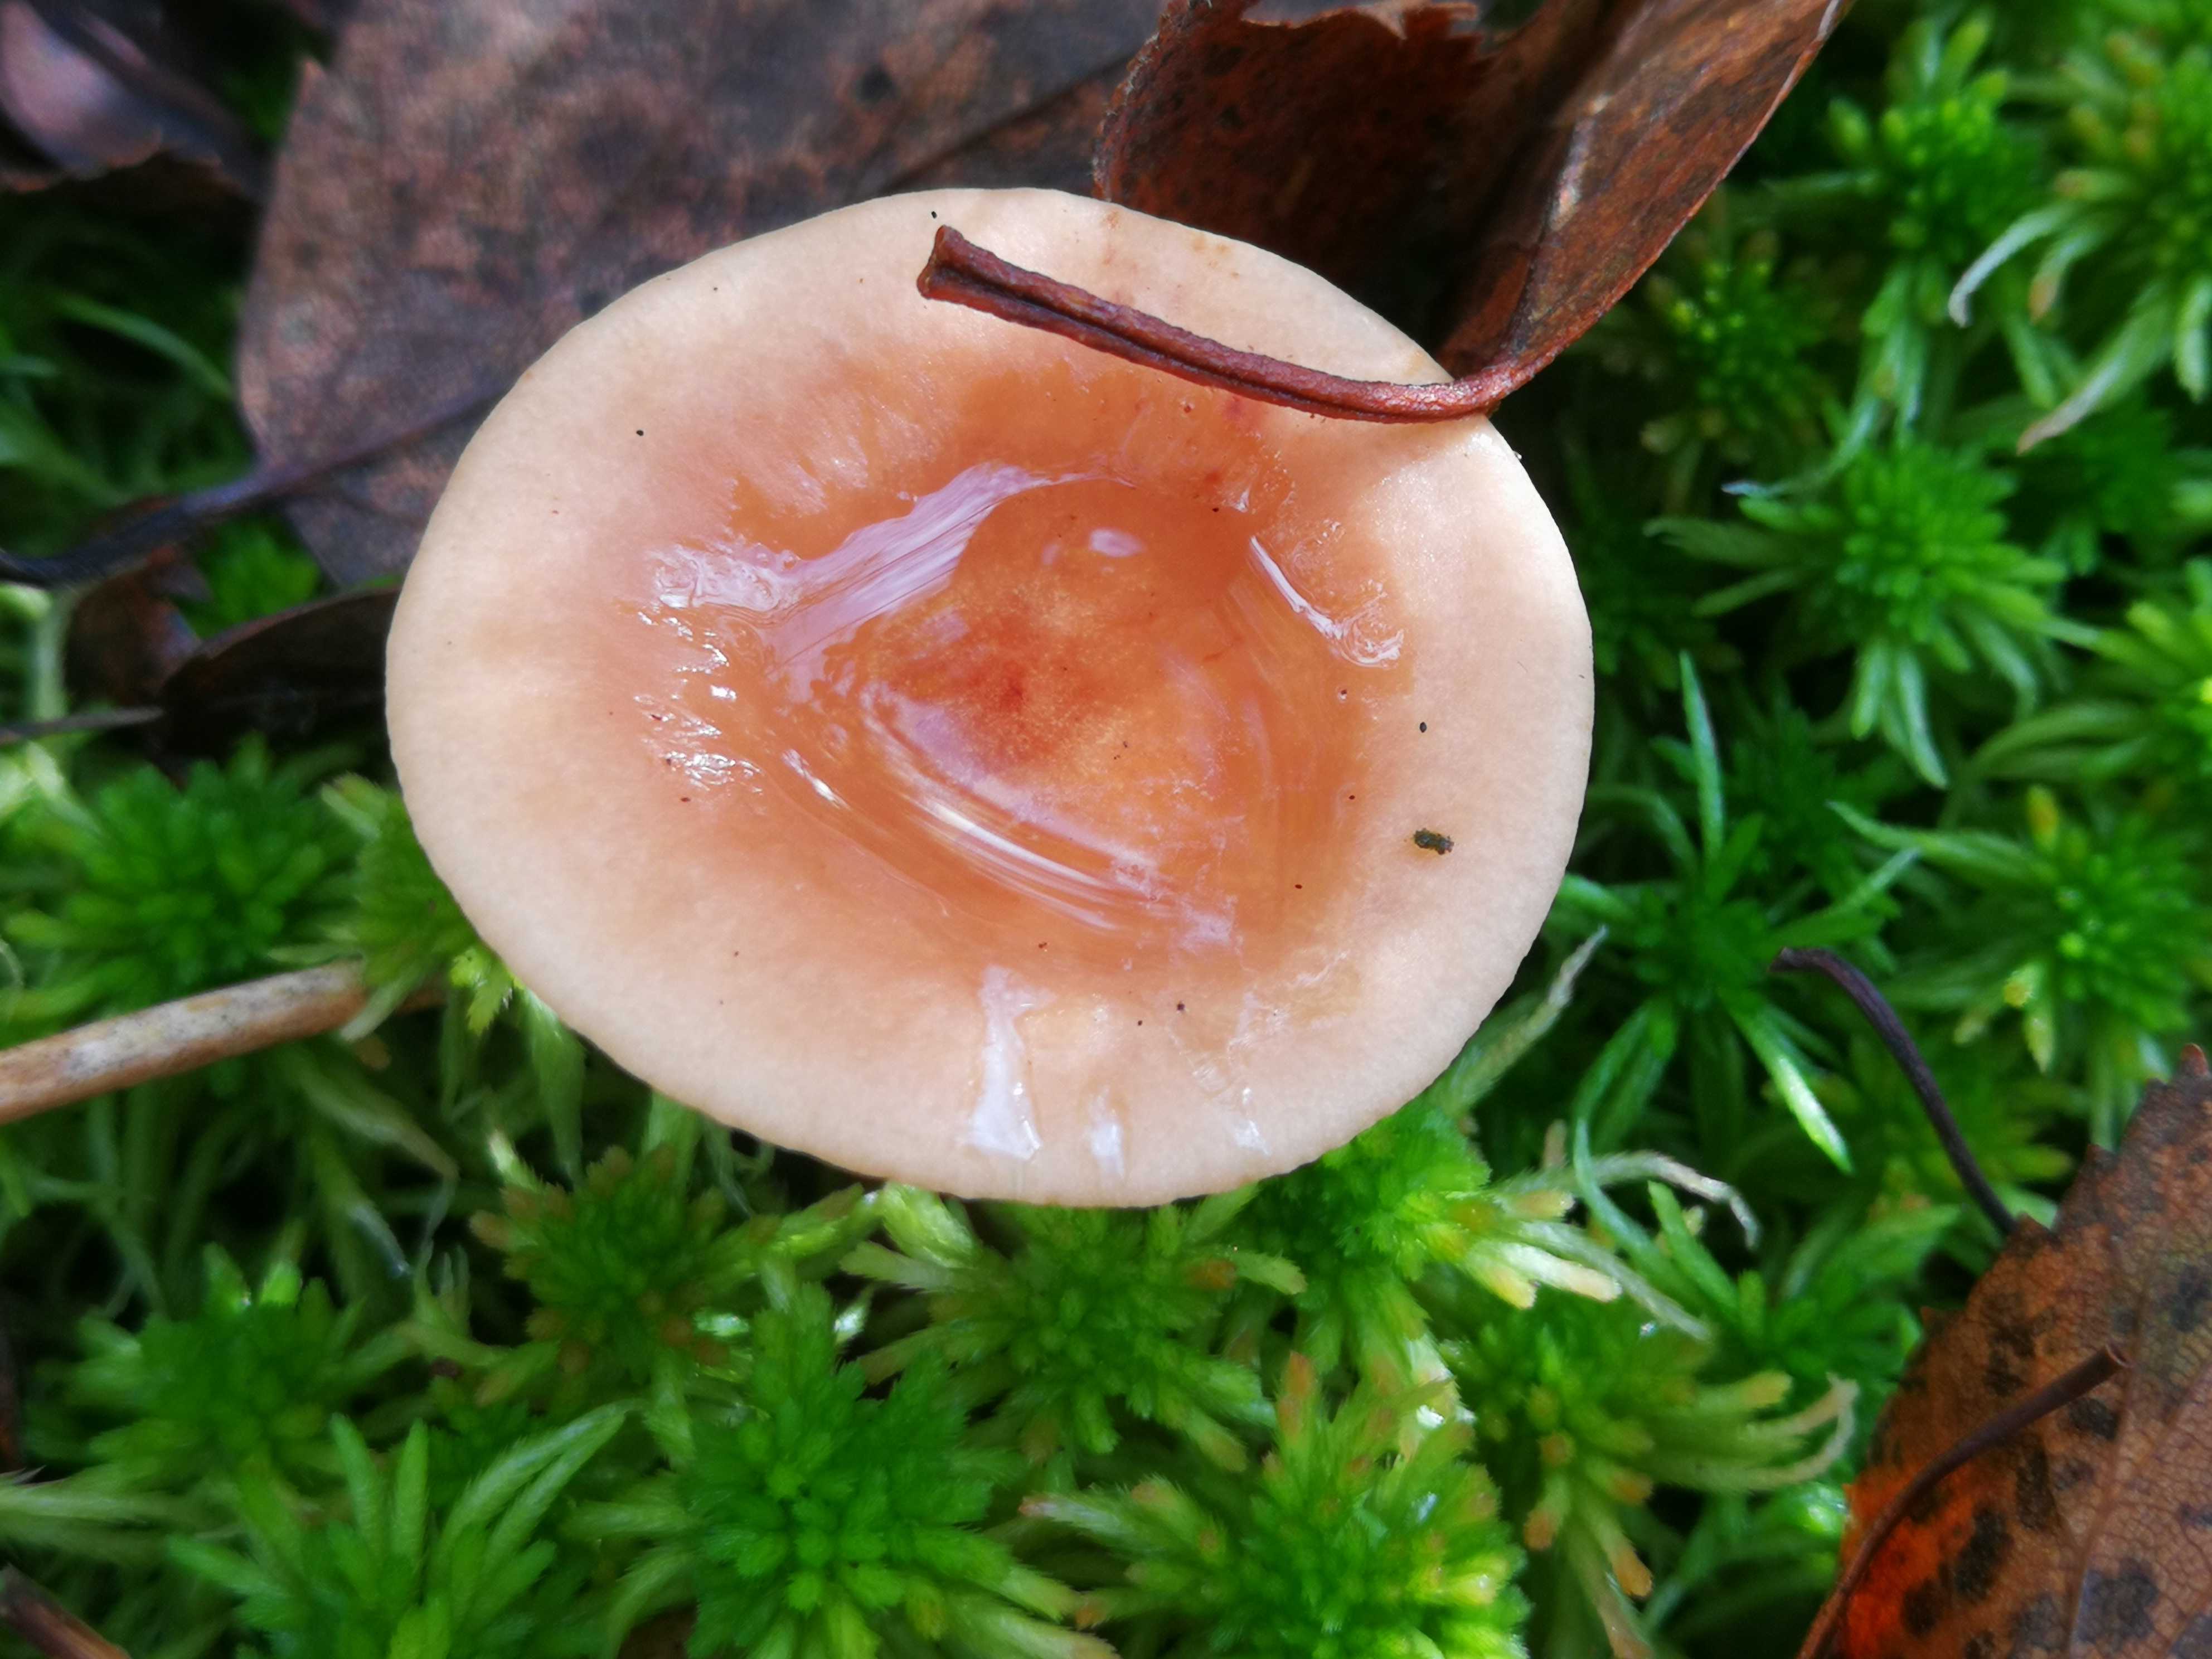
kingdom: Fungi
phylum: Basidiomycota
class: Agaricomycetes
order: Russulales
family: Russulaceae
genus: Lactarius
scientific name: Lactarius tabidus
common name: rynket mælkehat
